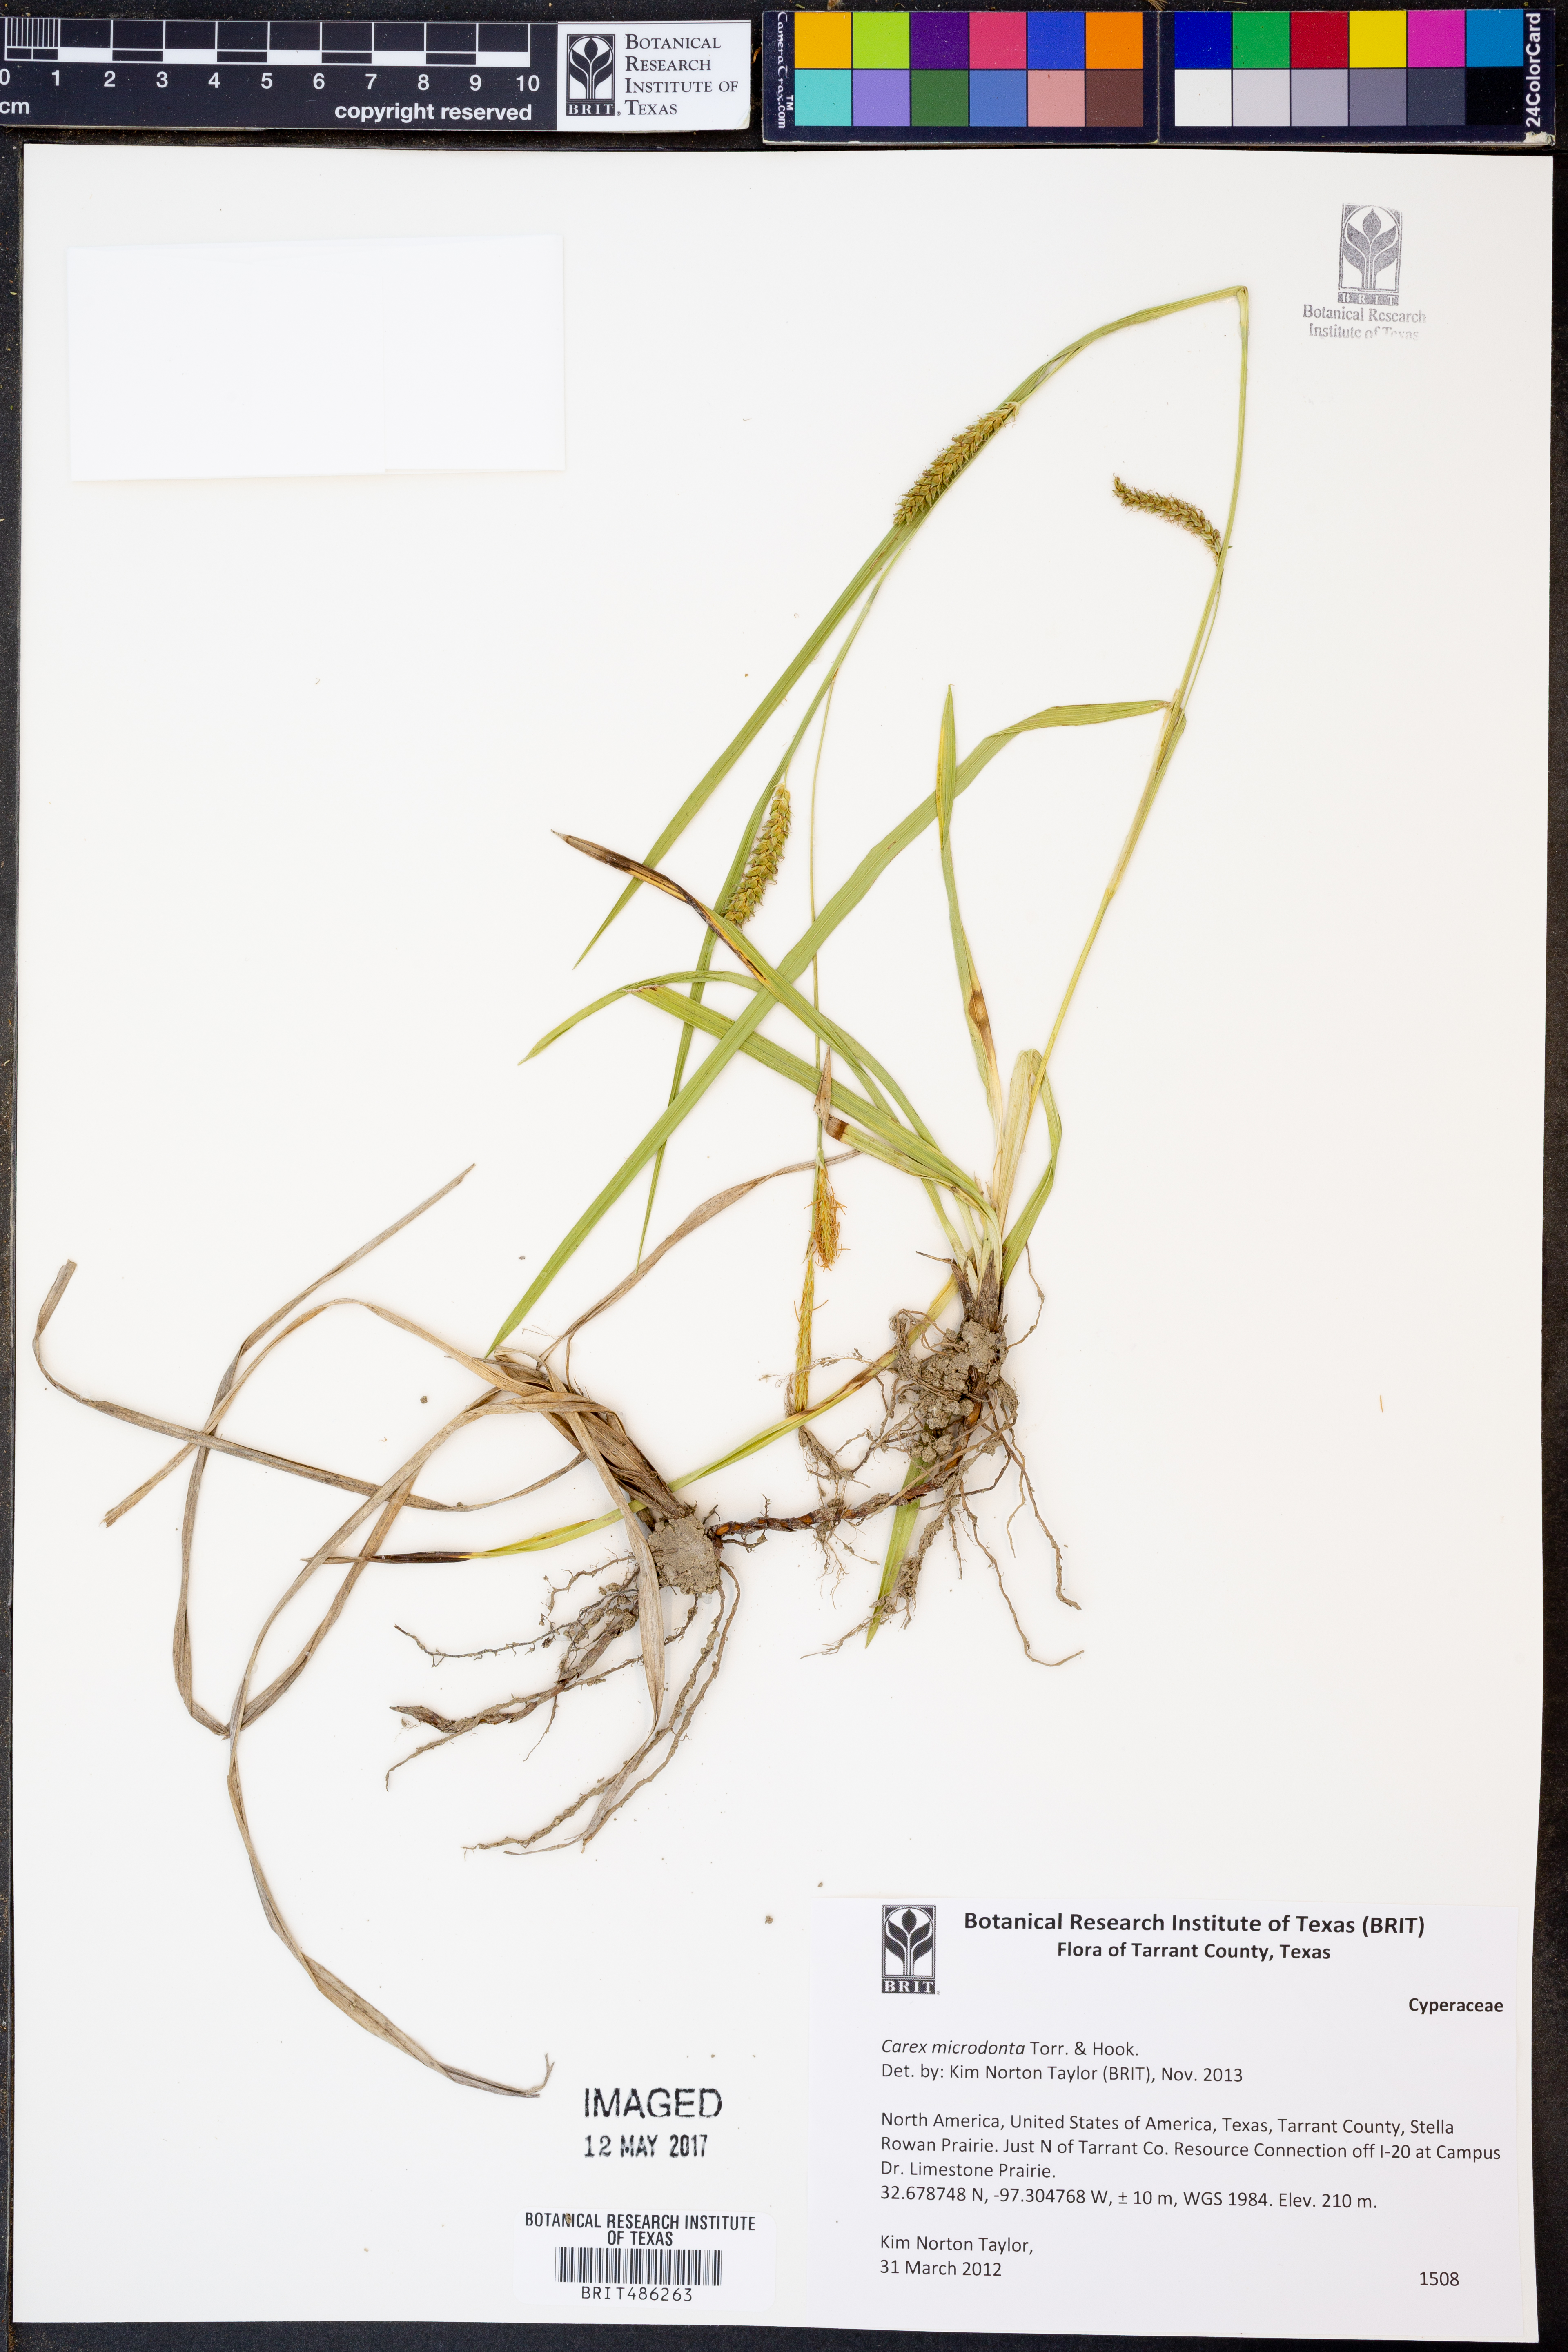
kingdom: Plantae
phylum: Tracheophyta
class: Liliopsida
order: Poales
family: Cyperaceae
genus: Carex
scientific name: Carex microdonta
